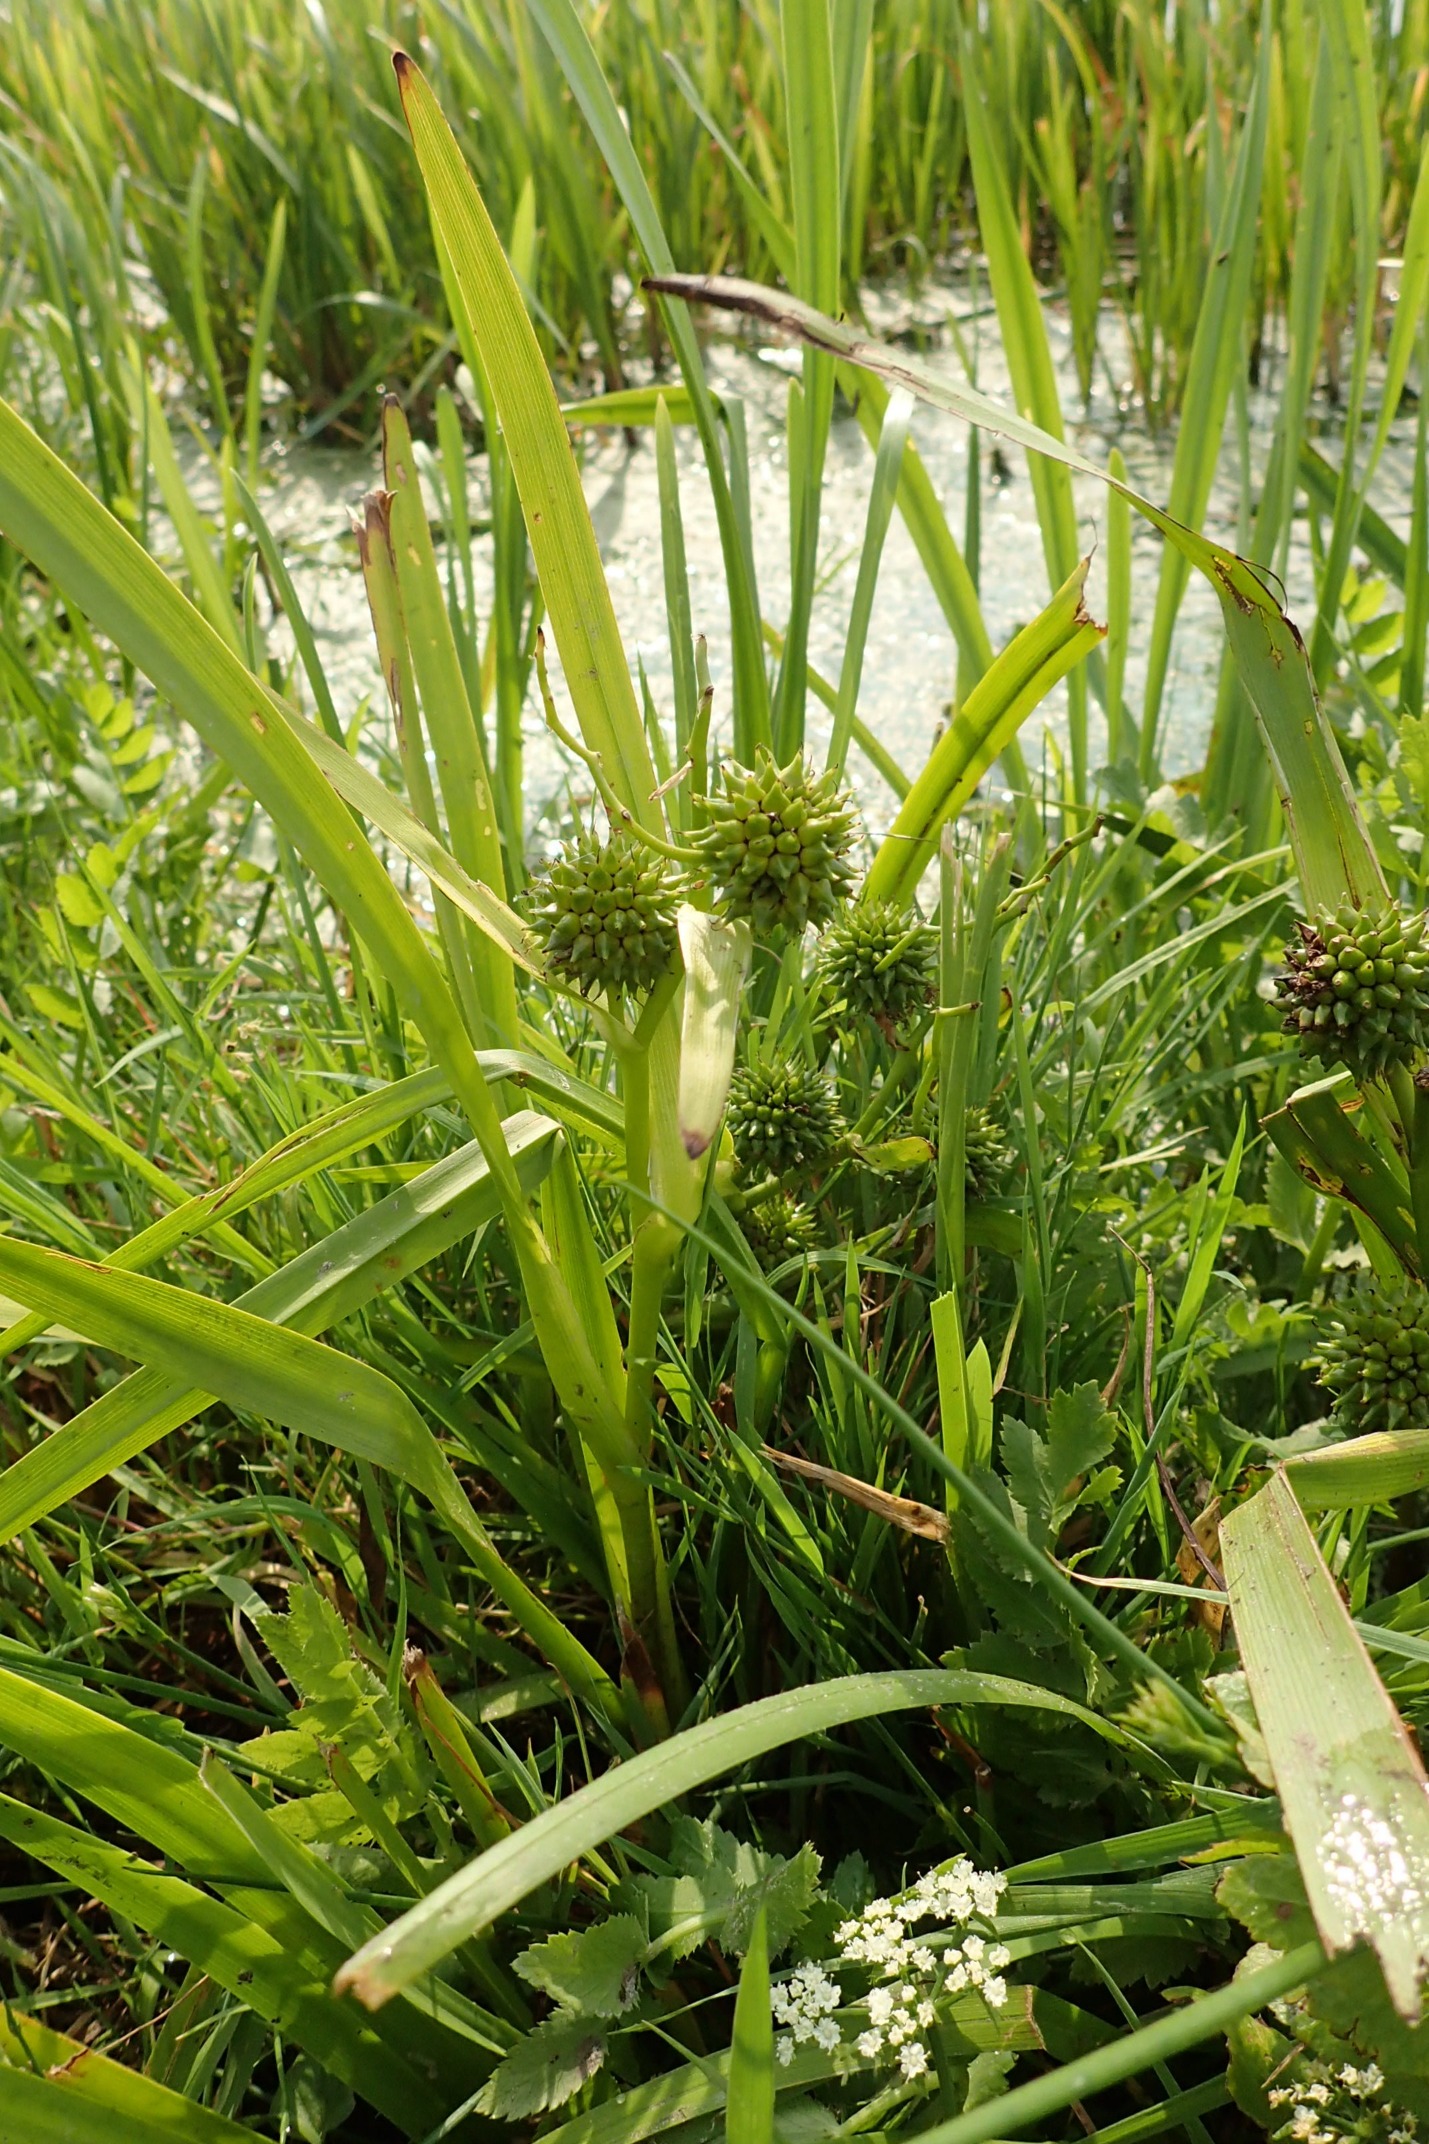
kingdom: Plantae
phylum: Tracheophyta
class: Liliopsida
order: Poales
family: Typhaceae
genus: Sparganium
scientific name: Sparganium erectum
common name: Sodfarvet pindsvineknop
